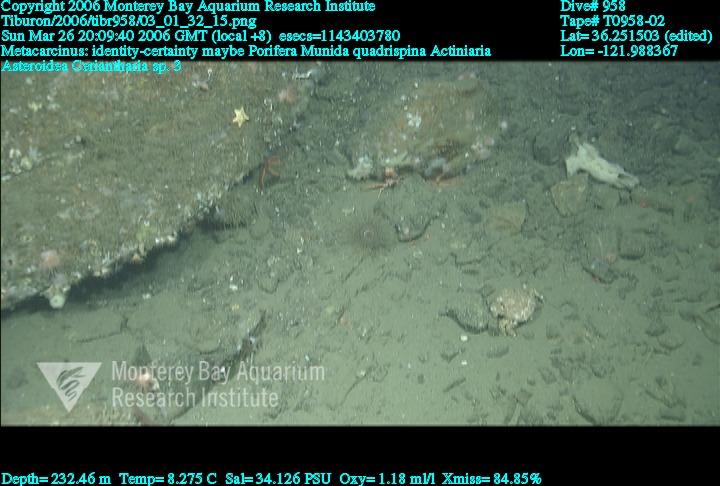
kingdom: Animalia
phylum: Porifera
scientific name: Porifera
